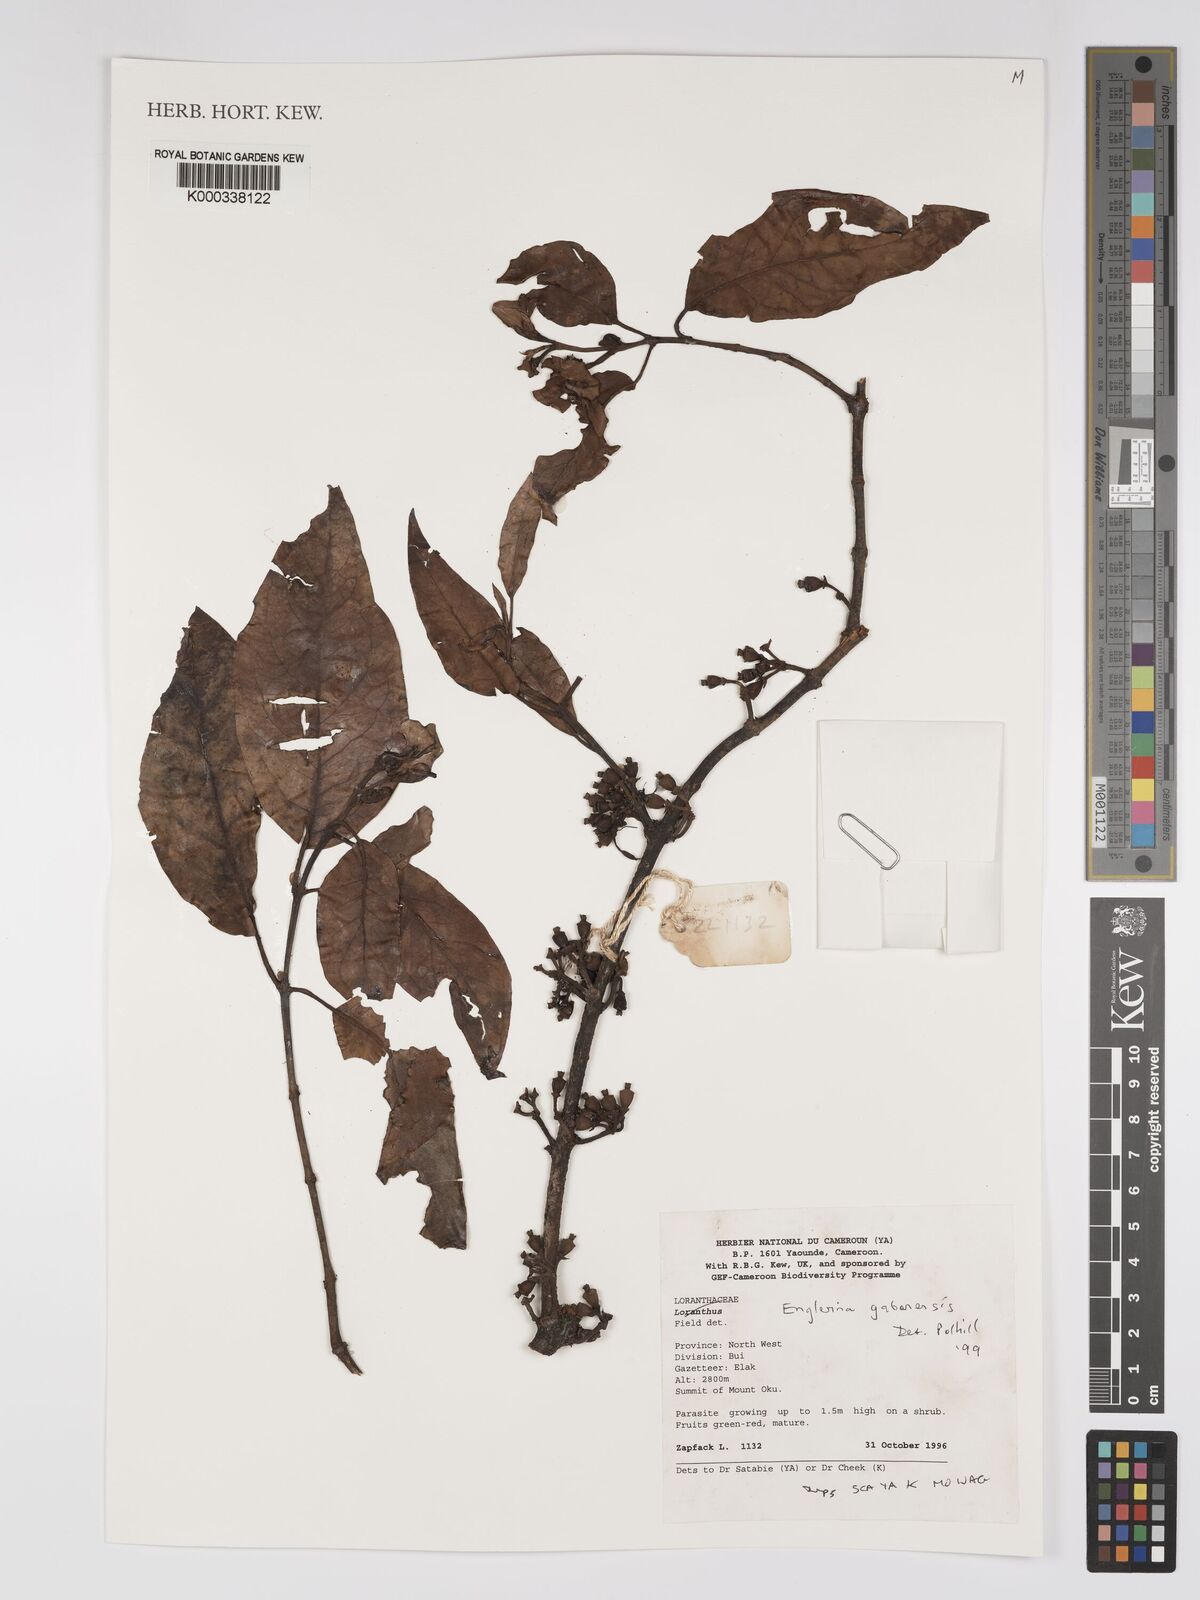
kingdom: Plantae
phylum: Tracheophyta
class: Magnoliopsida
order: Santalales
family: Loranthaceae
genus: Englerina
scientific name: Englerina gabonensis
